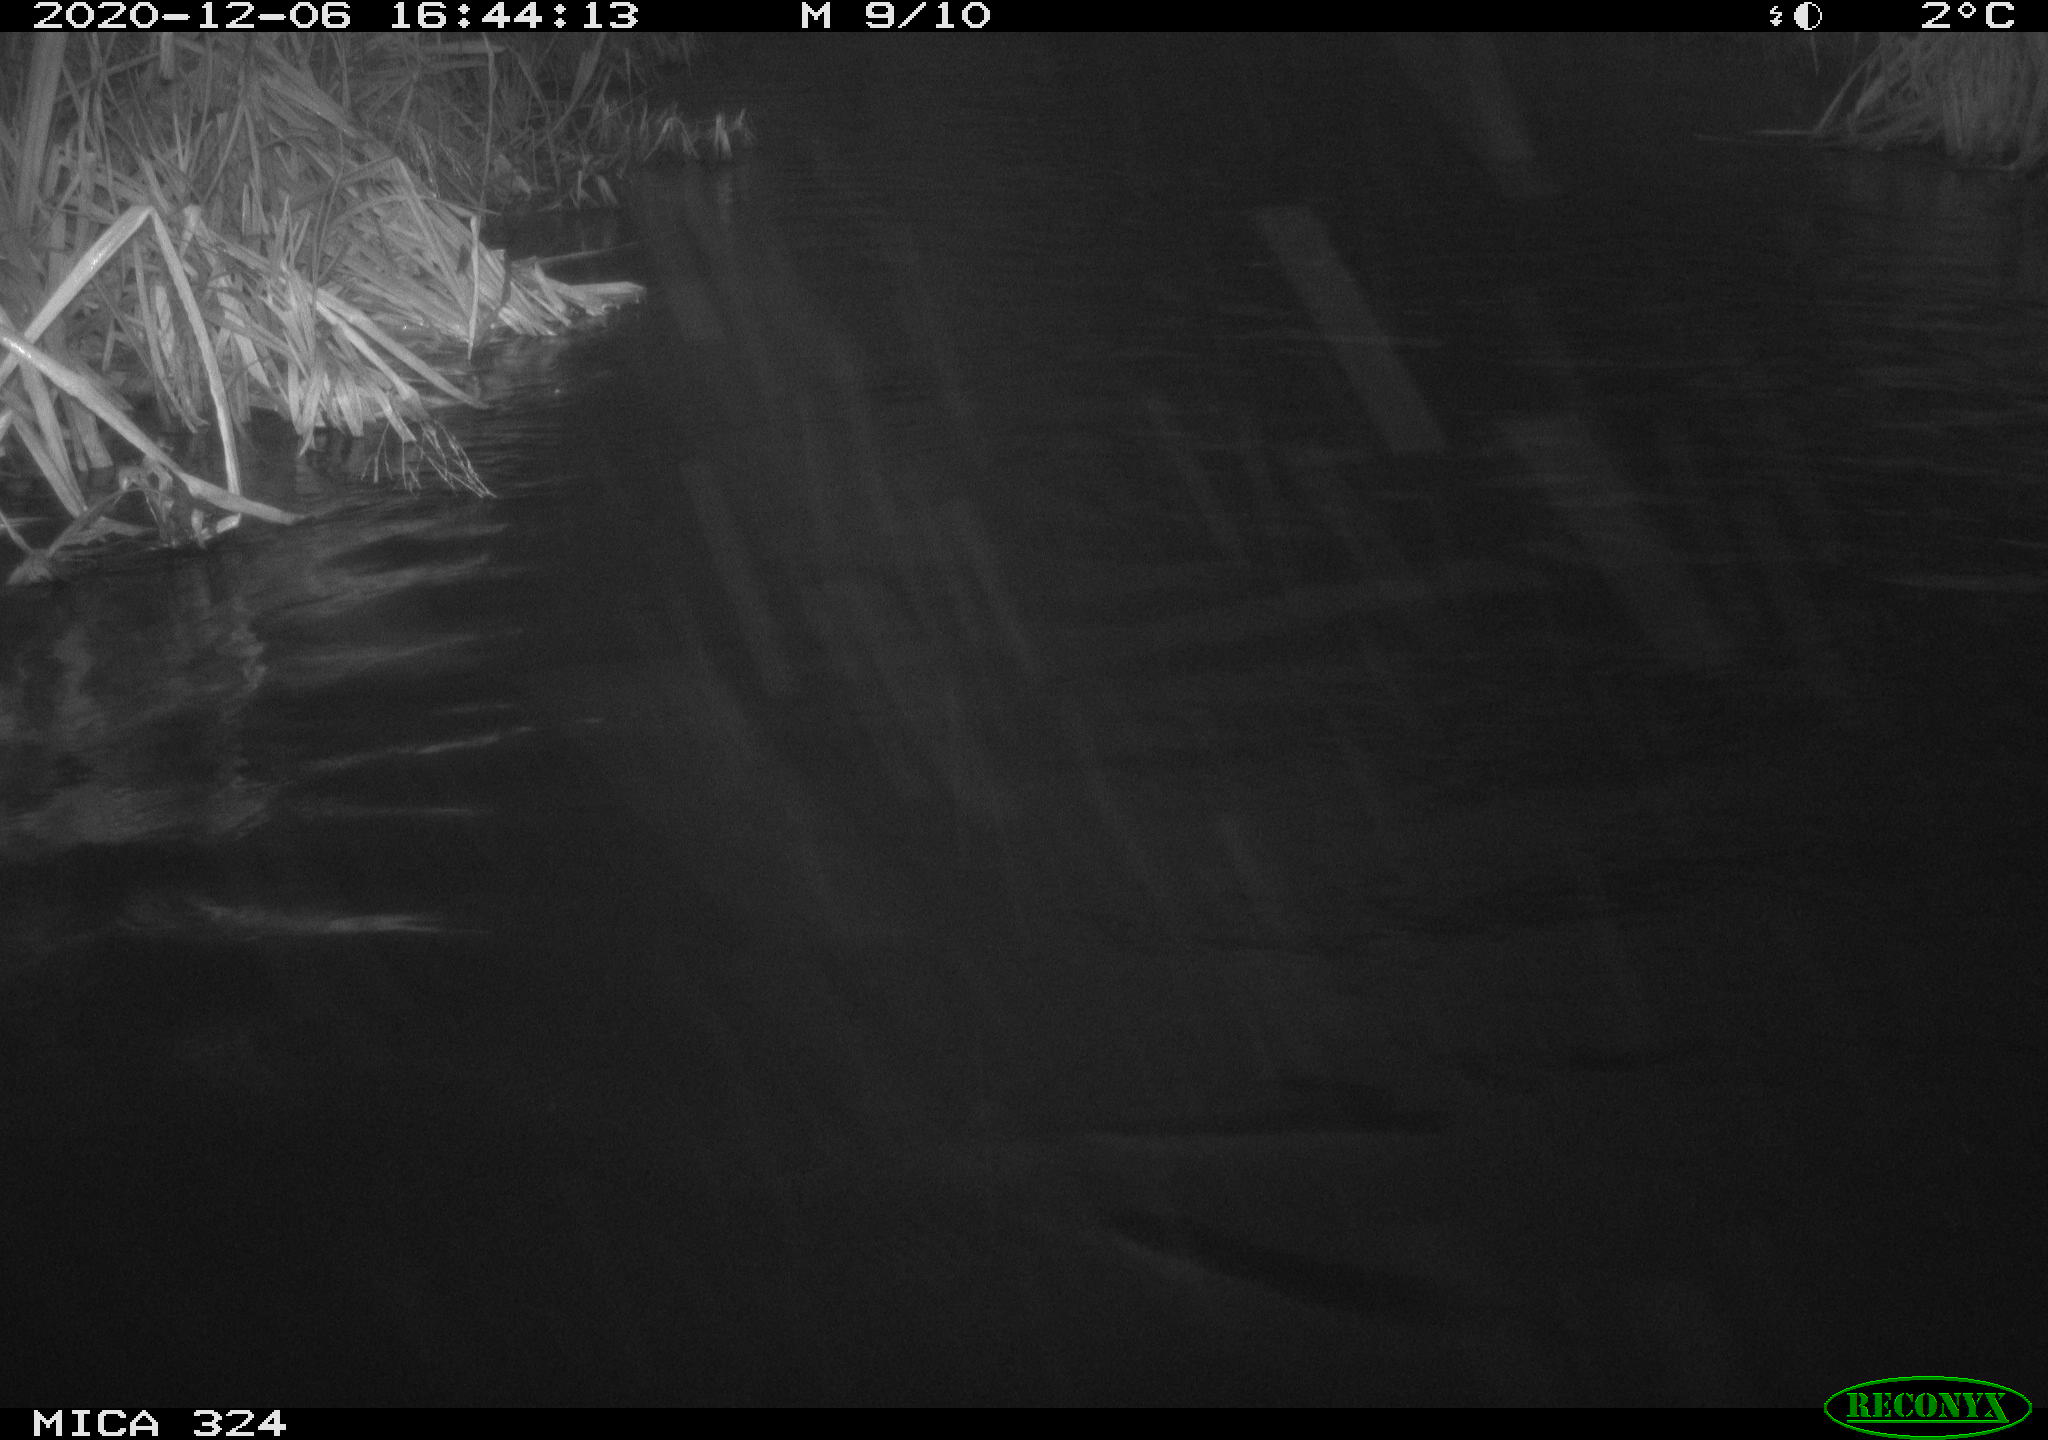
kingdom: Animalia
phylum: Chordata
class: Aves
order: Gruiformes
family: Rallidae
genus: Fulica
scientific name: Fulica atra
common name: Eurasian coot
